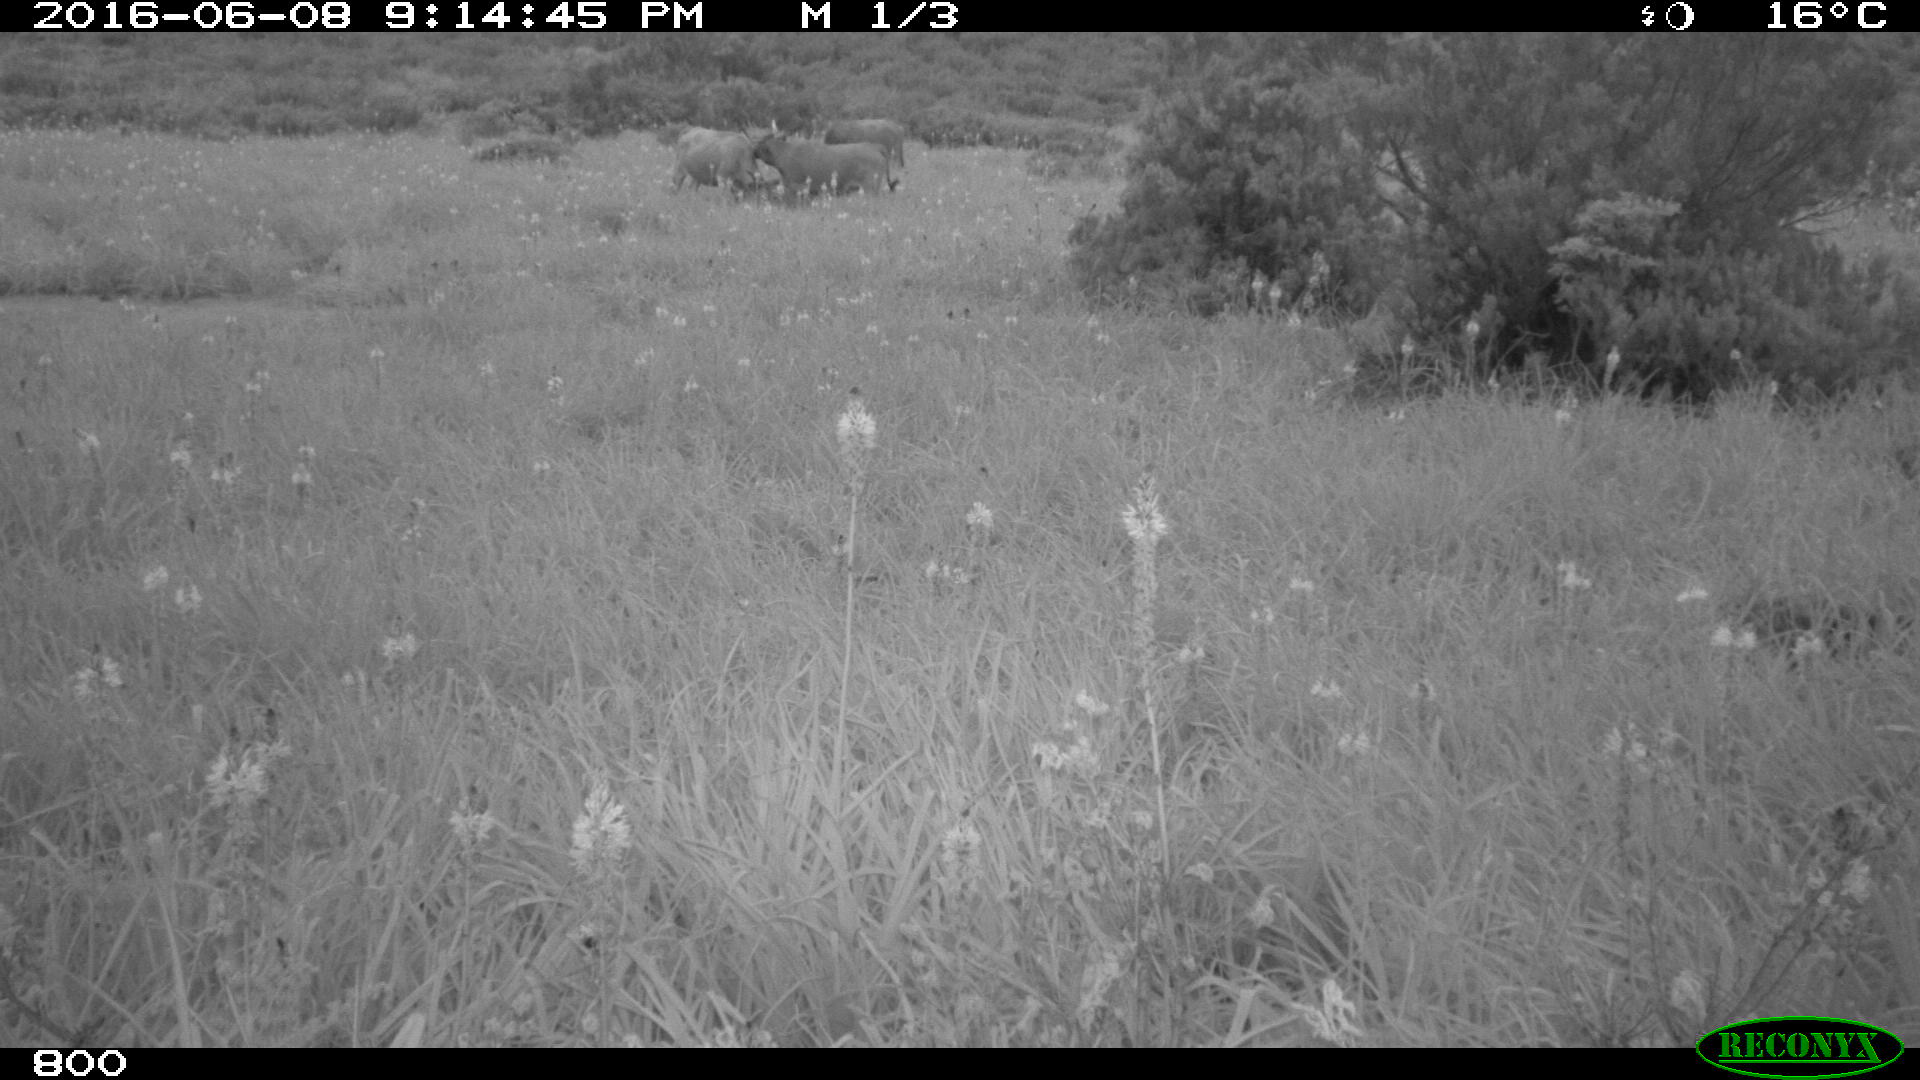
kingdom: Animalia
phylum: Chordata
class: Mammalia
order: Artiodactyla
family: Bovidae
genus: Bos
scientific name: Bos taurus
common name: Domesticated cattle
